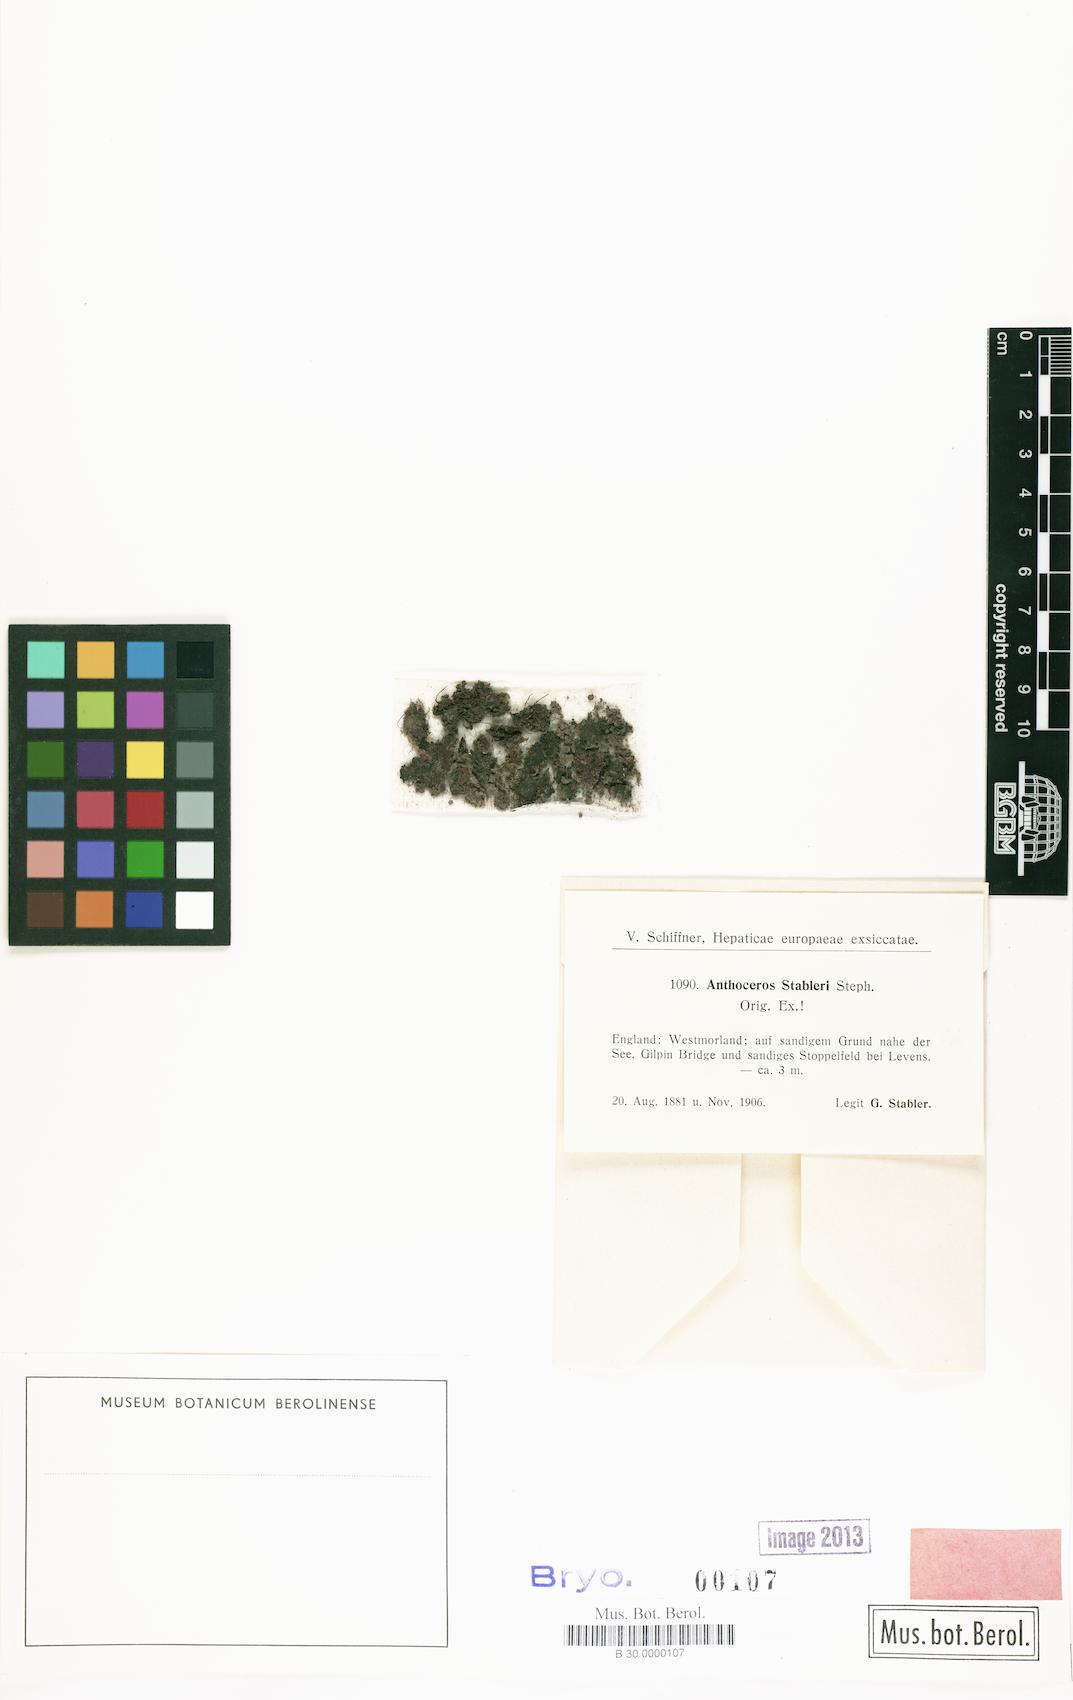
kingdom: Plantae
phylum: Anthocerotophyta
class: Anthocerotopsida
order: Anthocerotales
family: Anthocerotaceae
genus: Anthoceros
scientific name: Anthoceros punctatus
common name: Dotted hornwort
